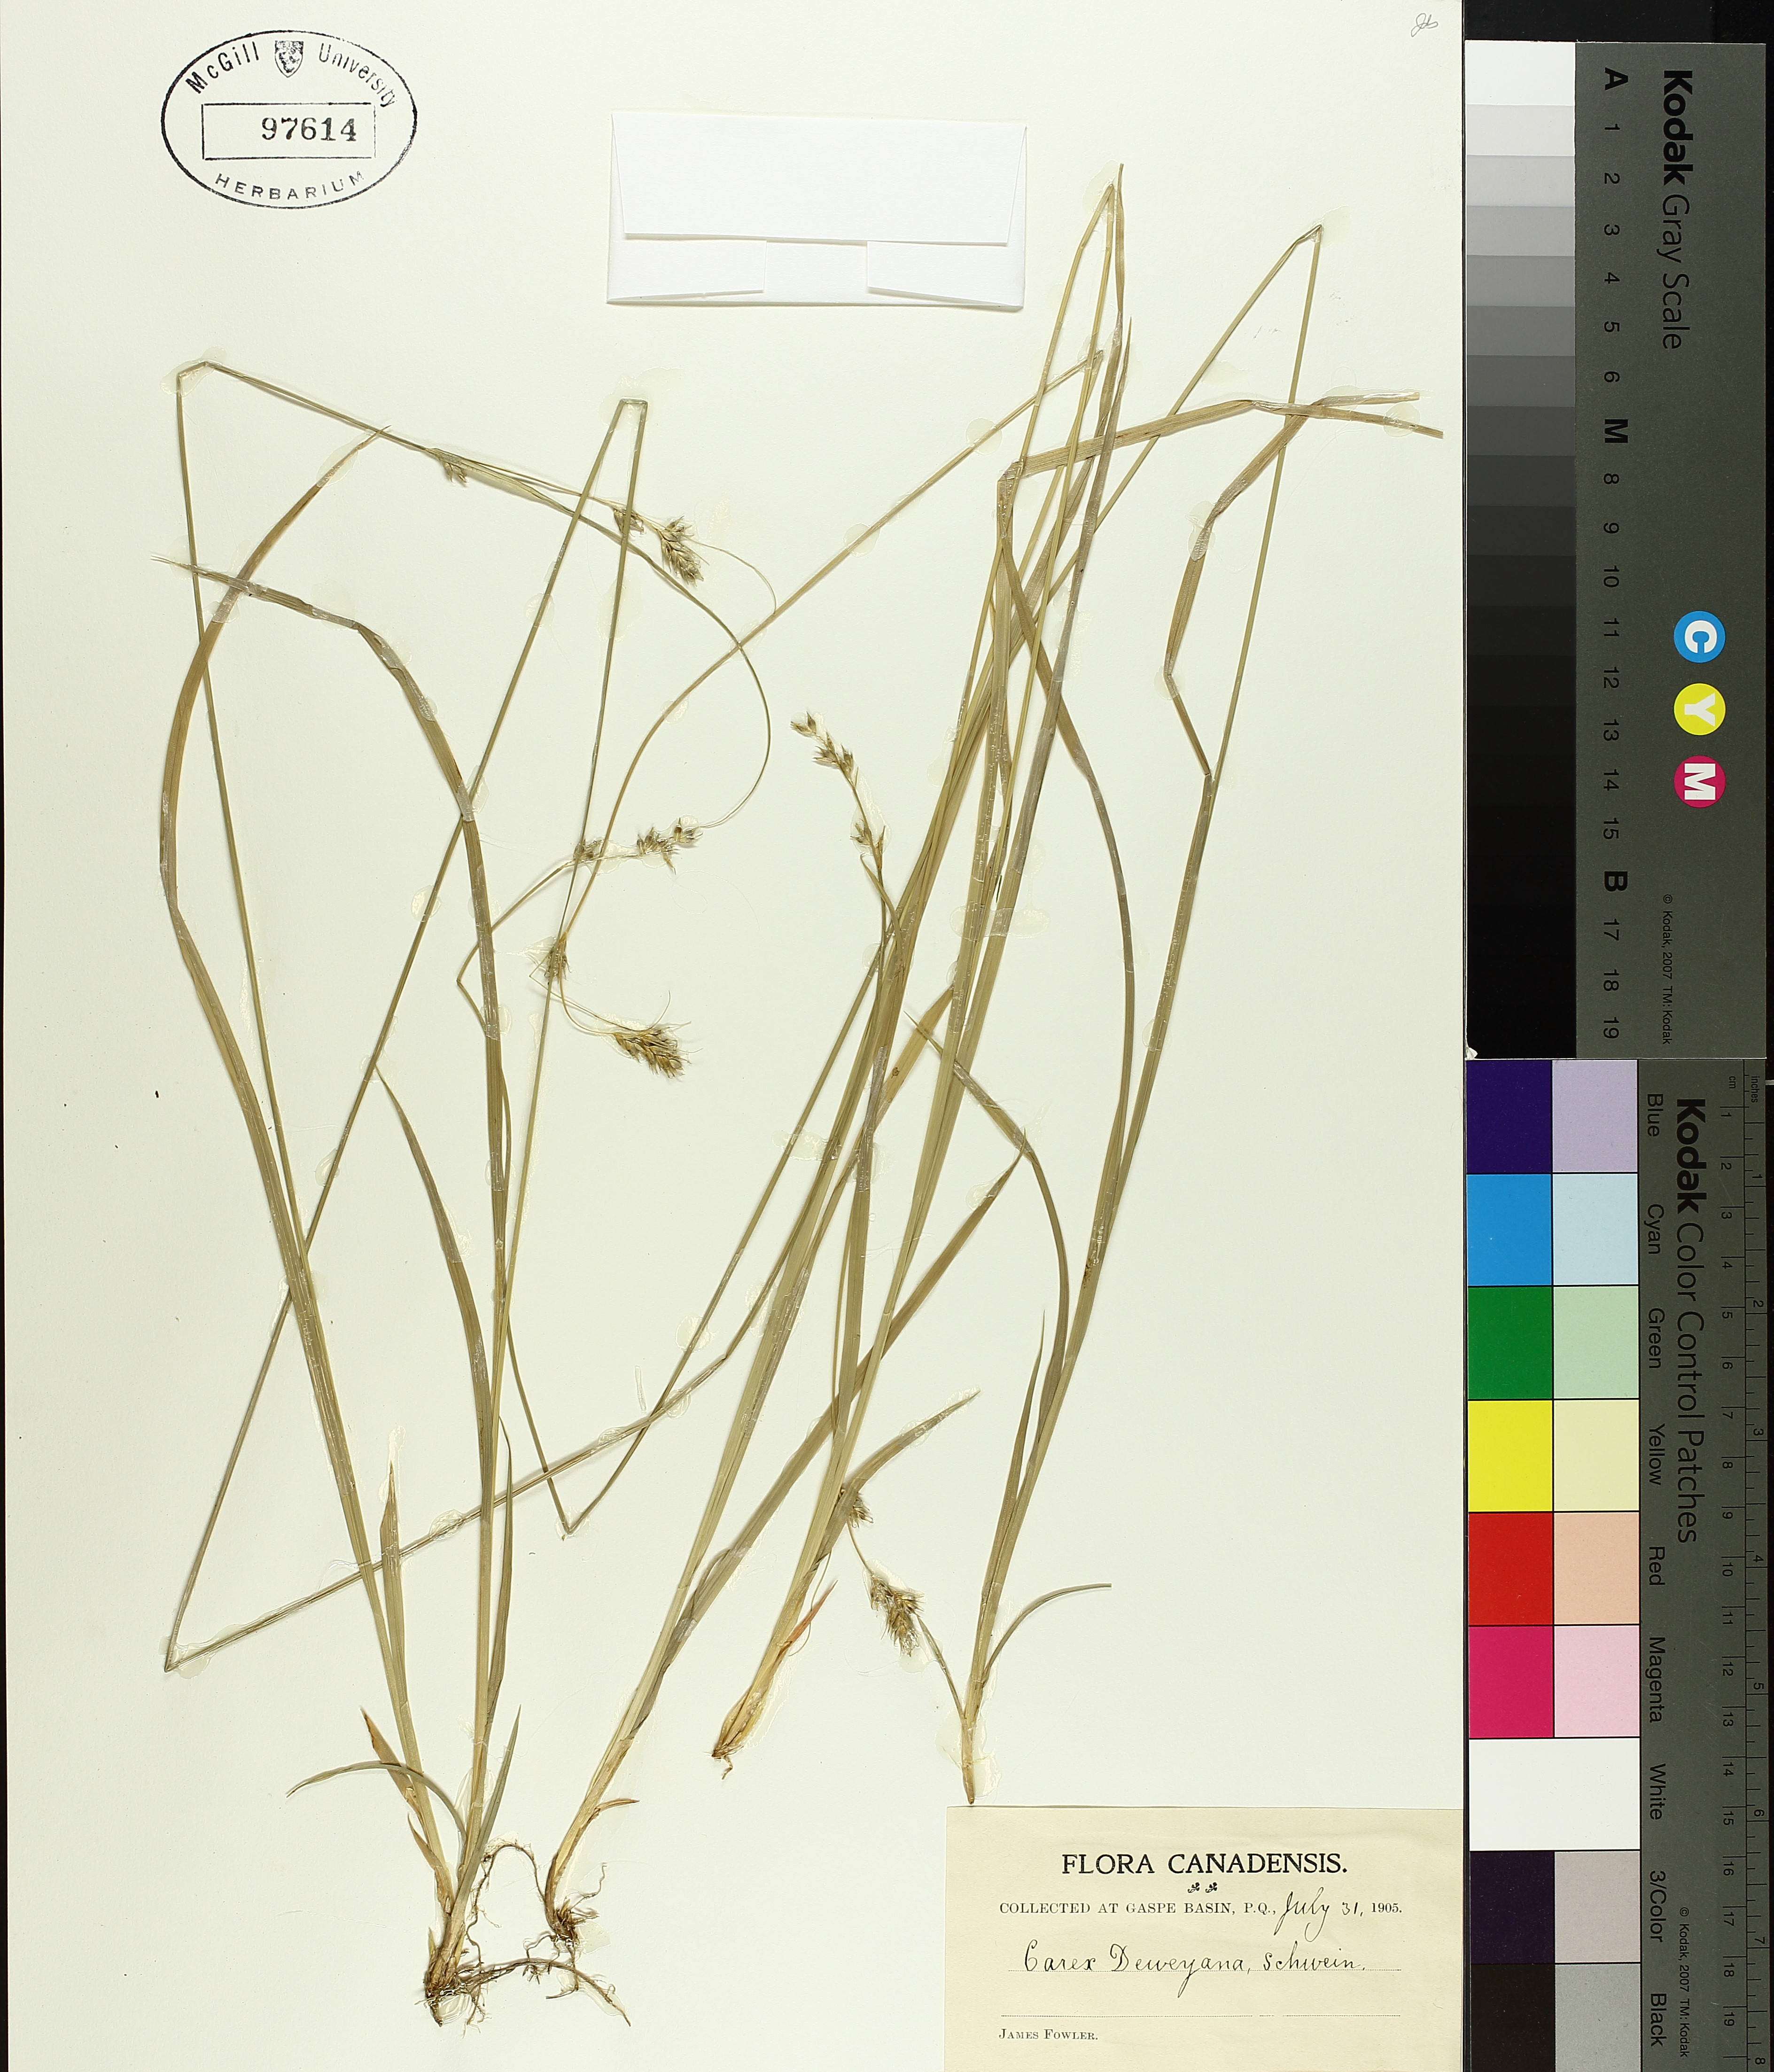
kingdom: Plantae
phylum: Tracheophyta
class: Liliopsida
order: Poales
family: Cyperaceae
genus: Carex
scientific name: Carex deweyana
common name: Dewey's sedge
